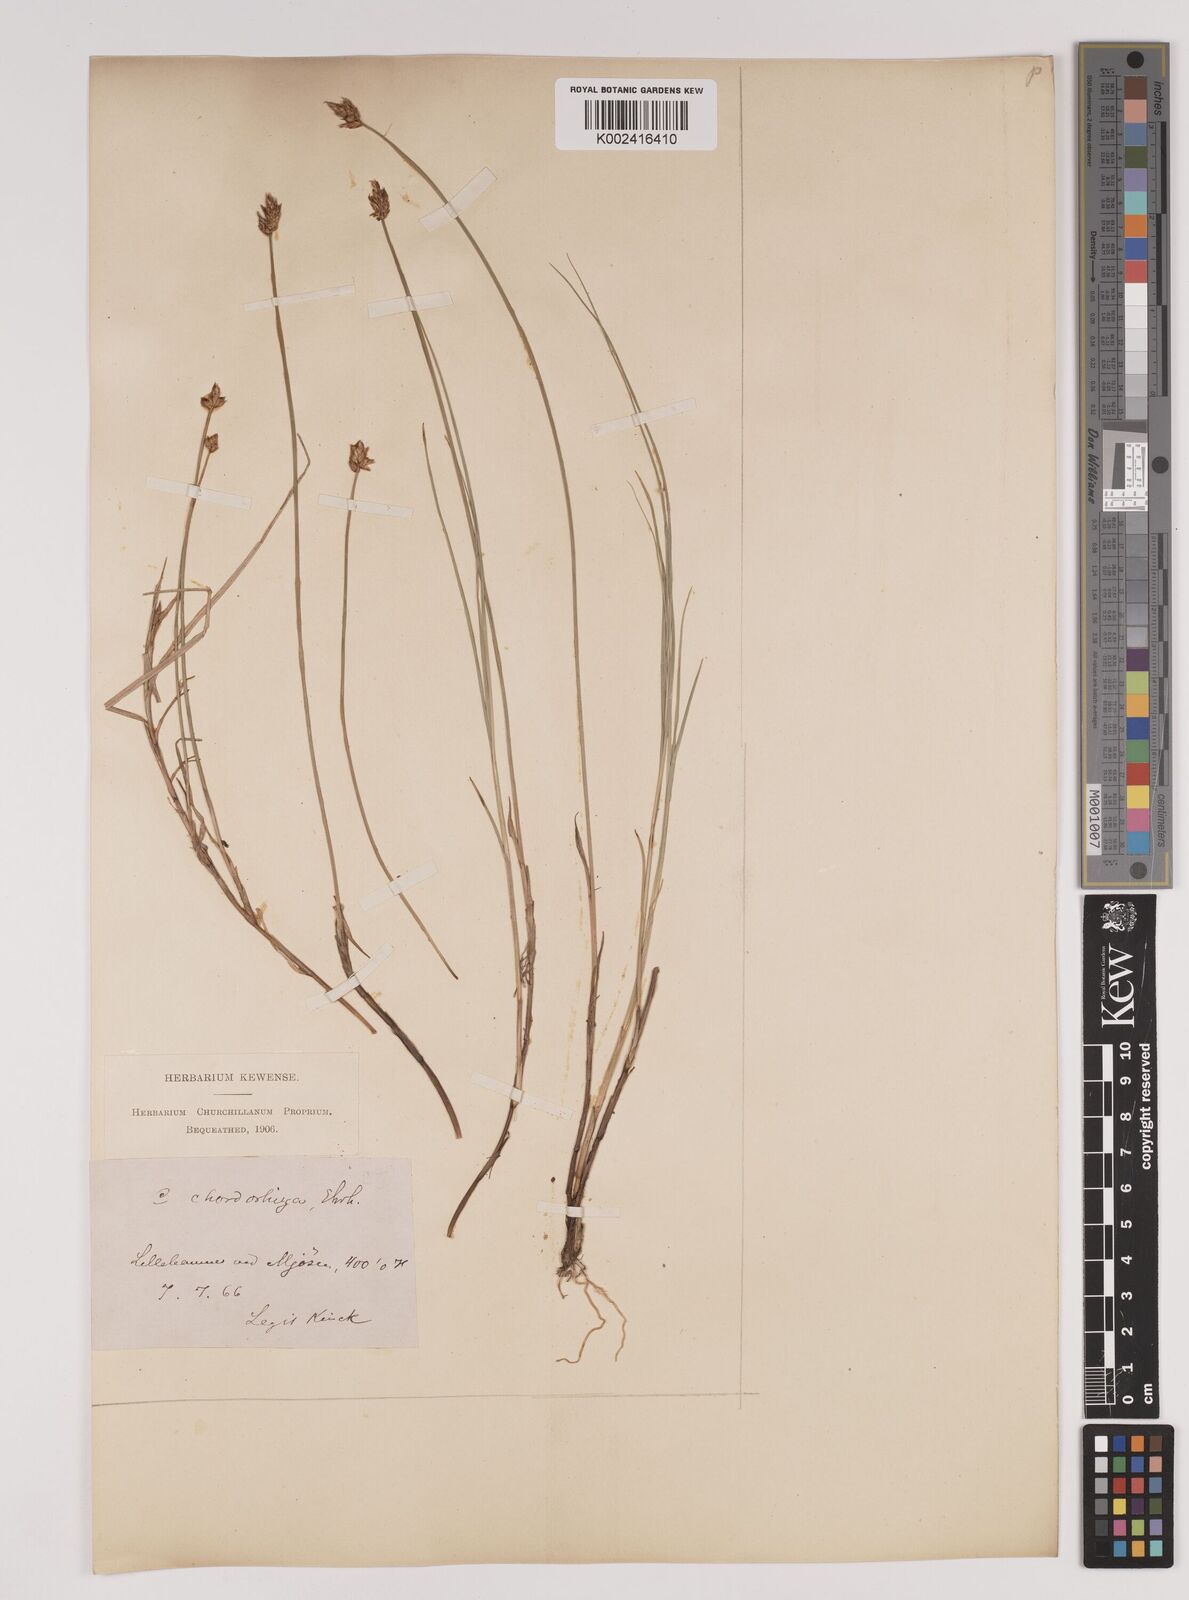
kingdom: Plantae
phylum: Tracheophyta
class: Liliopsida
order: Poales
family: Cyperaceae
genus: Carex
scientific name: Carex chordorrhiza
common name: String sedge
